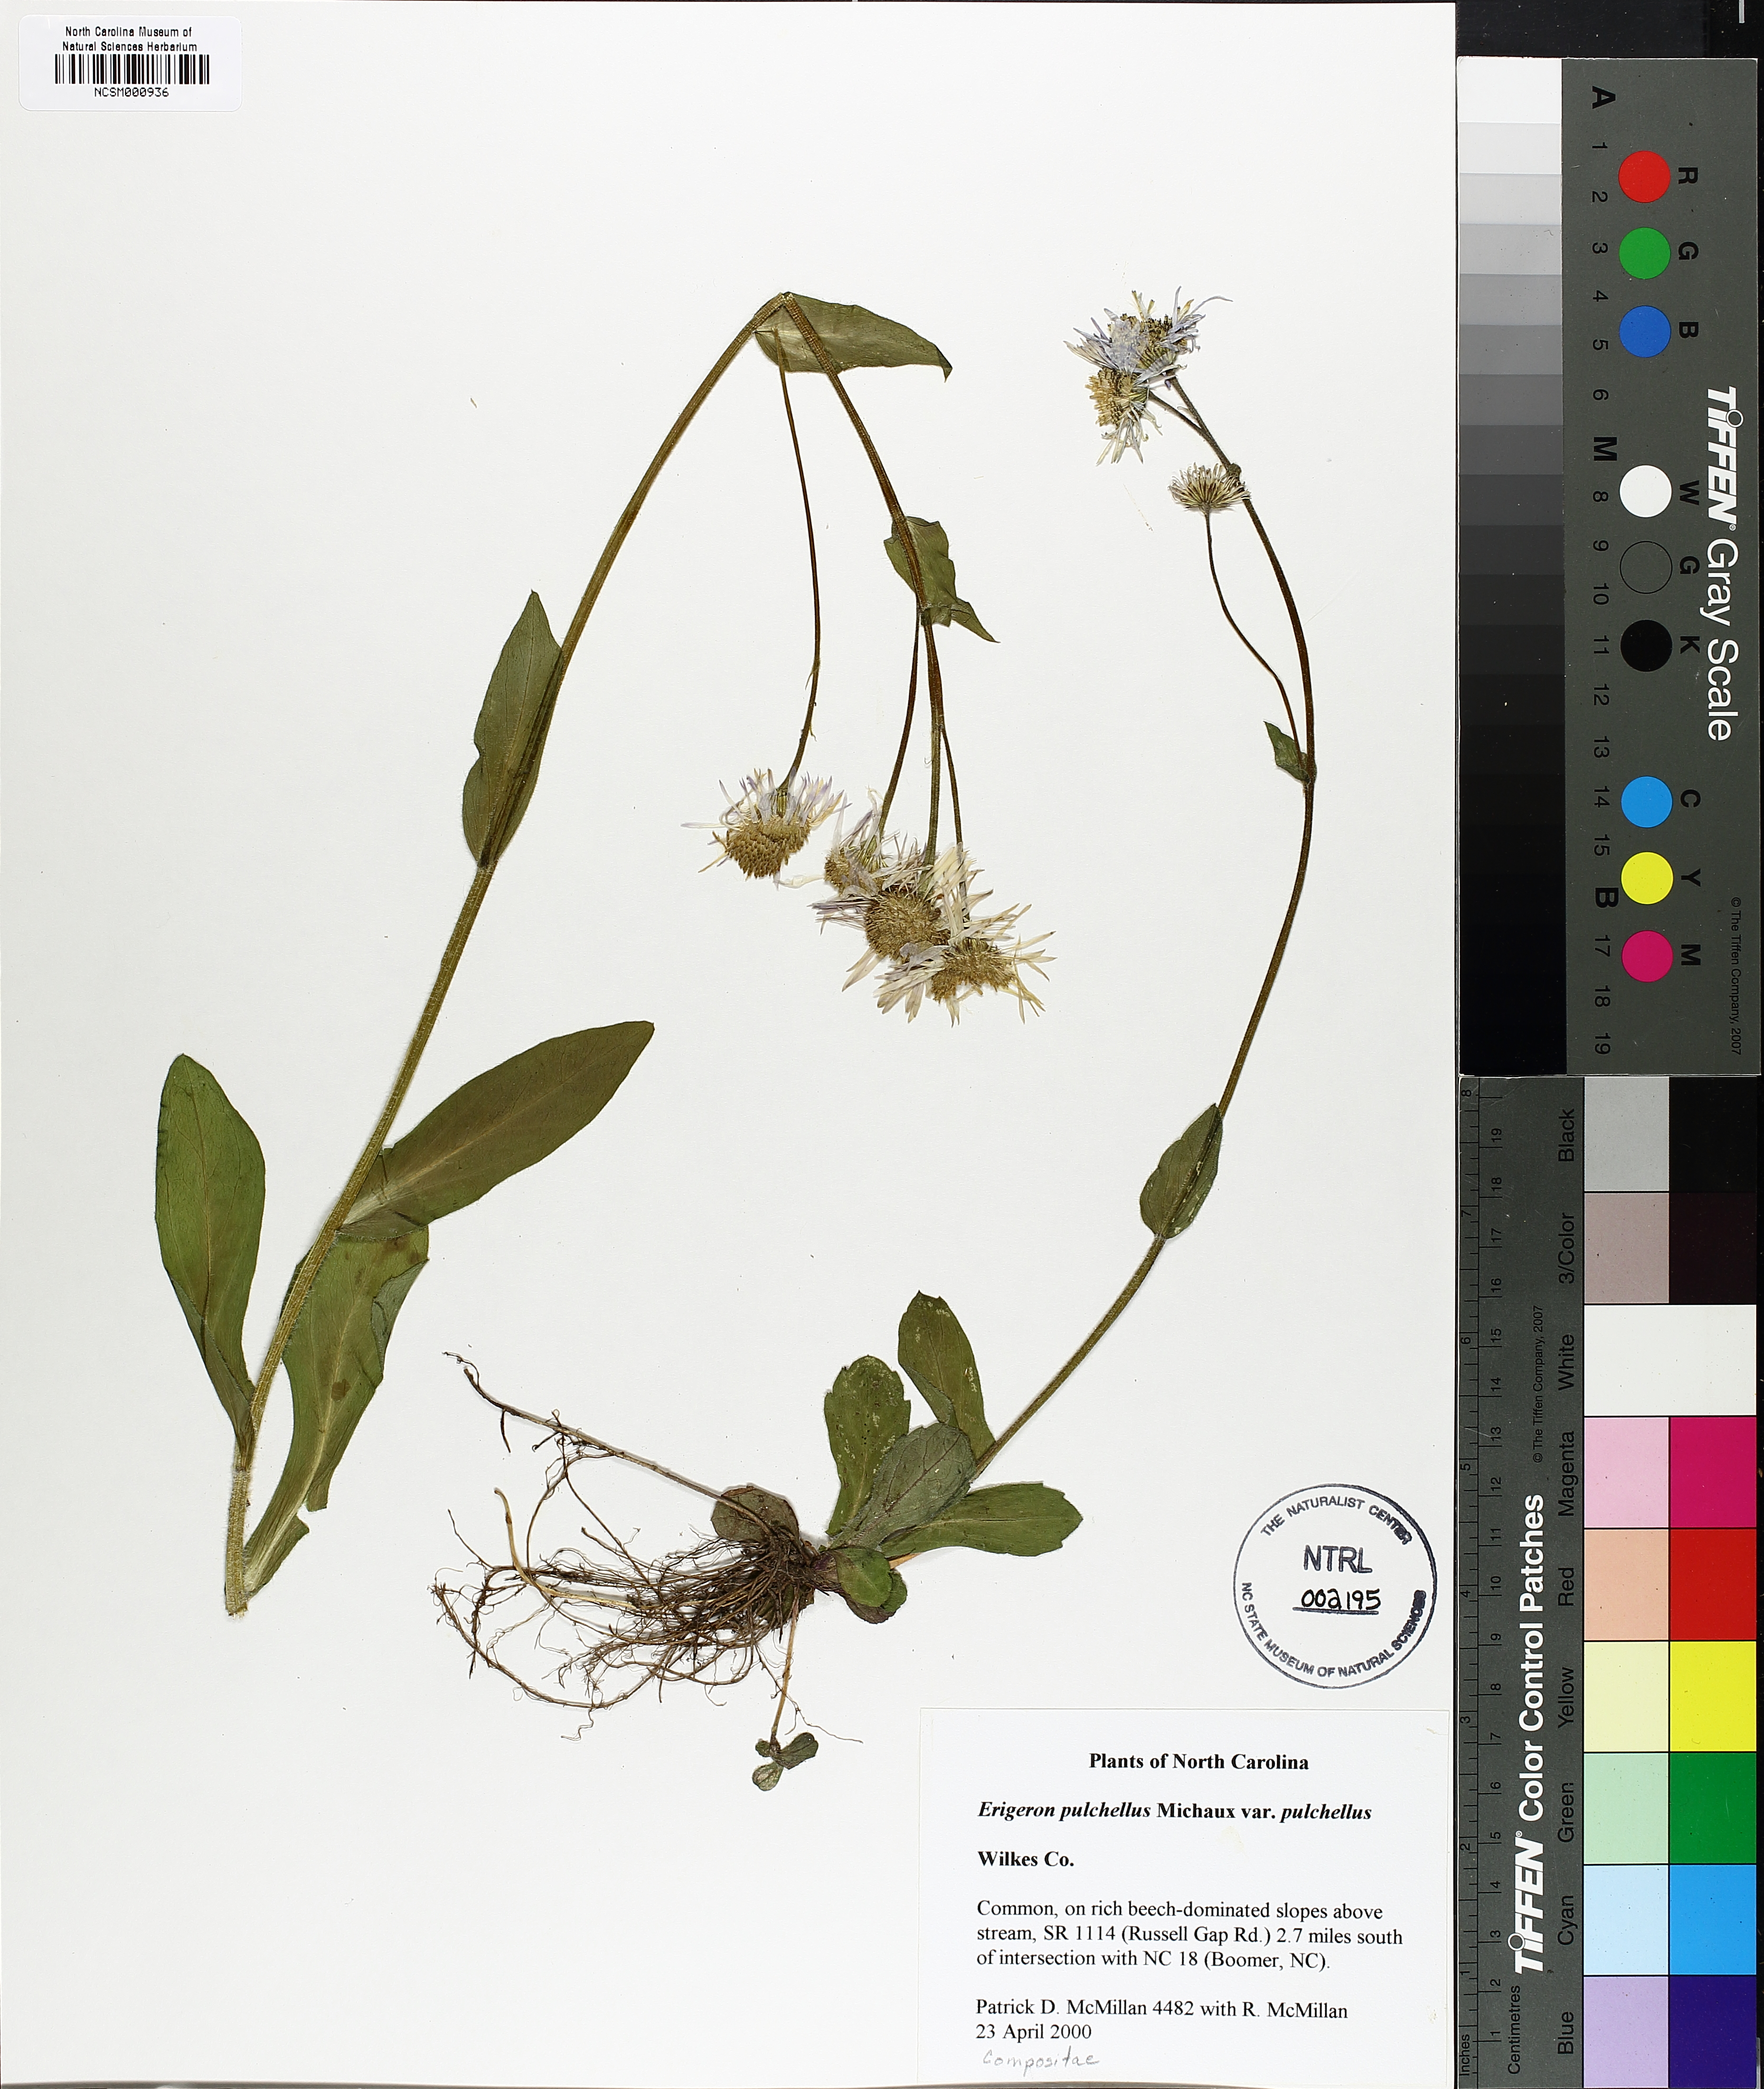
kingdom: Plantae
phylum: Tracheophyta
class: Magnoliopsida
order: Asterales
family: Asteraceae
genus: Erigeron
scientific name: Erigeron pulchellus
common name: Hairy fleabane
